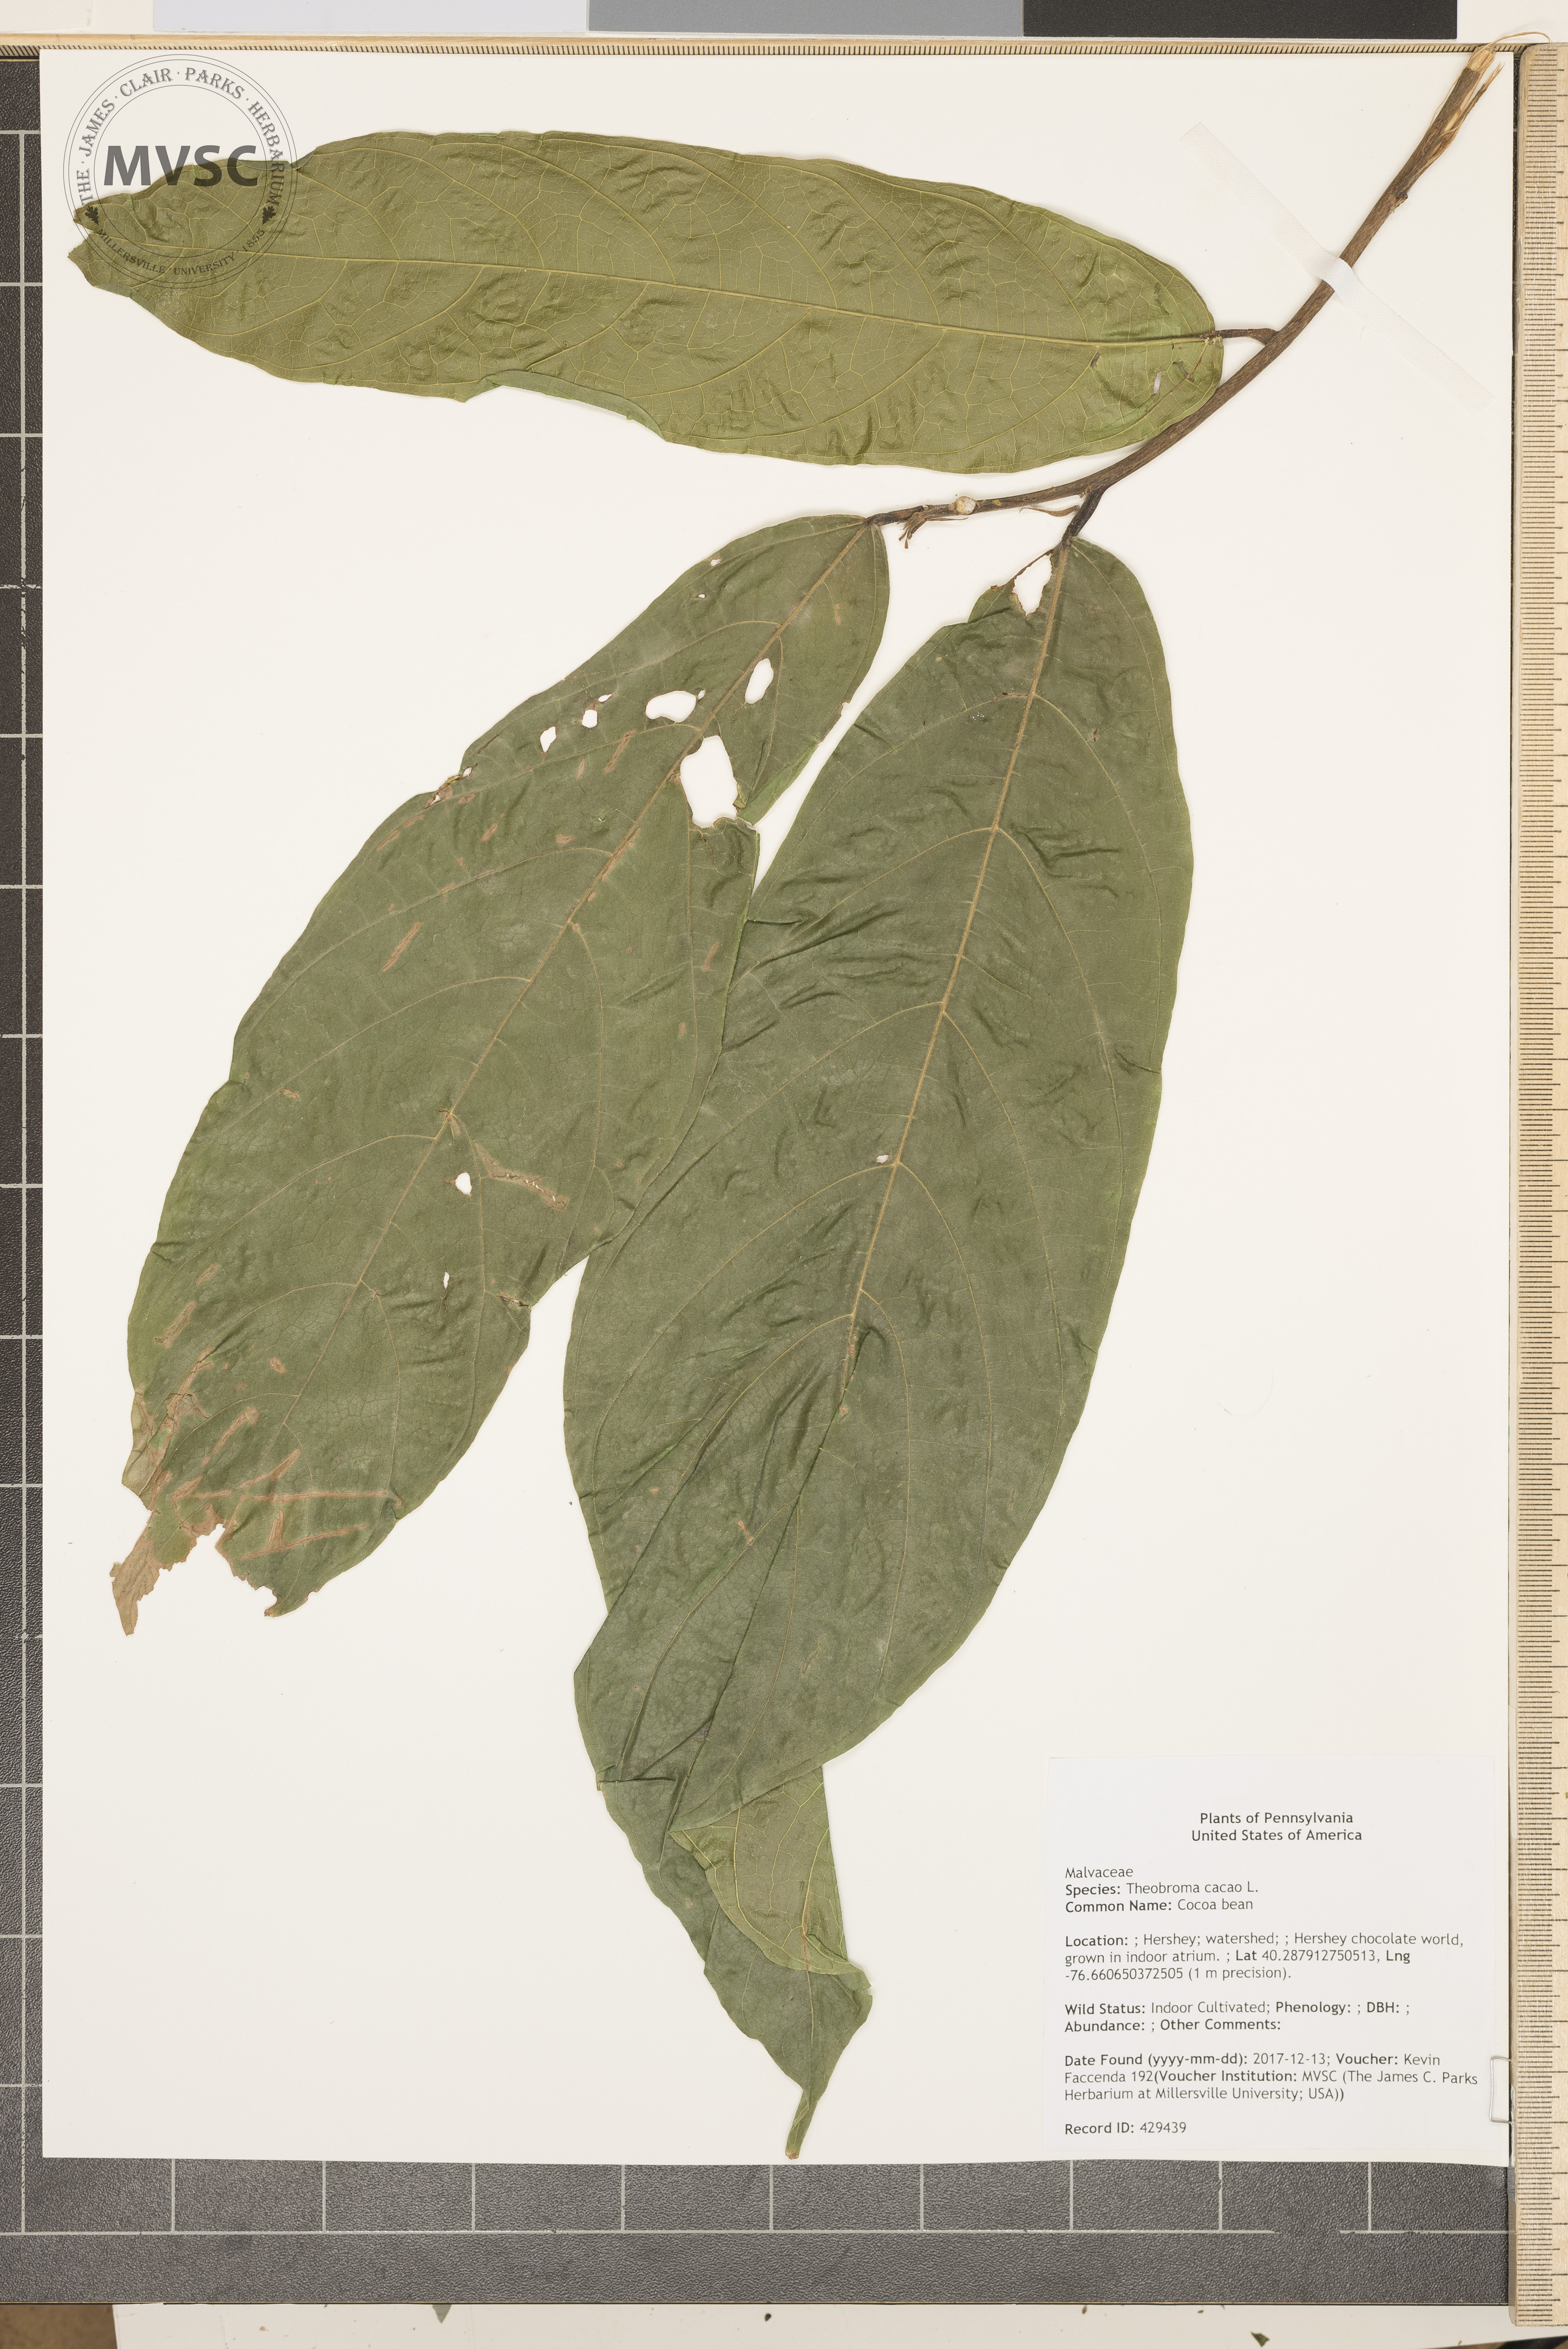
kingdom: Plantae
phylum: Tracheophyta
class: Magnoliopsida
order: Malvales
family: Malvaceae
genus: Theobroma
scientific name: Theobroma cacao
